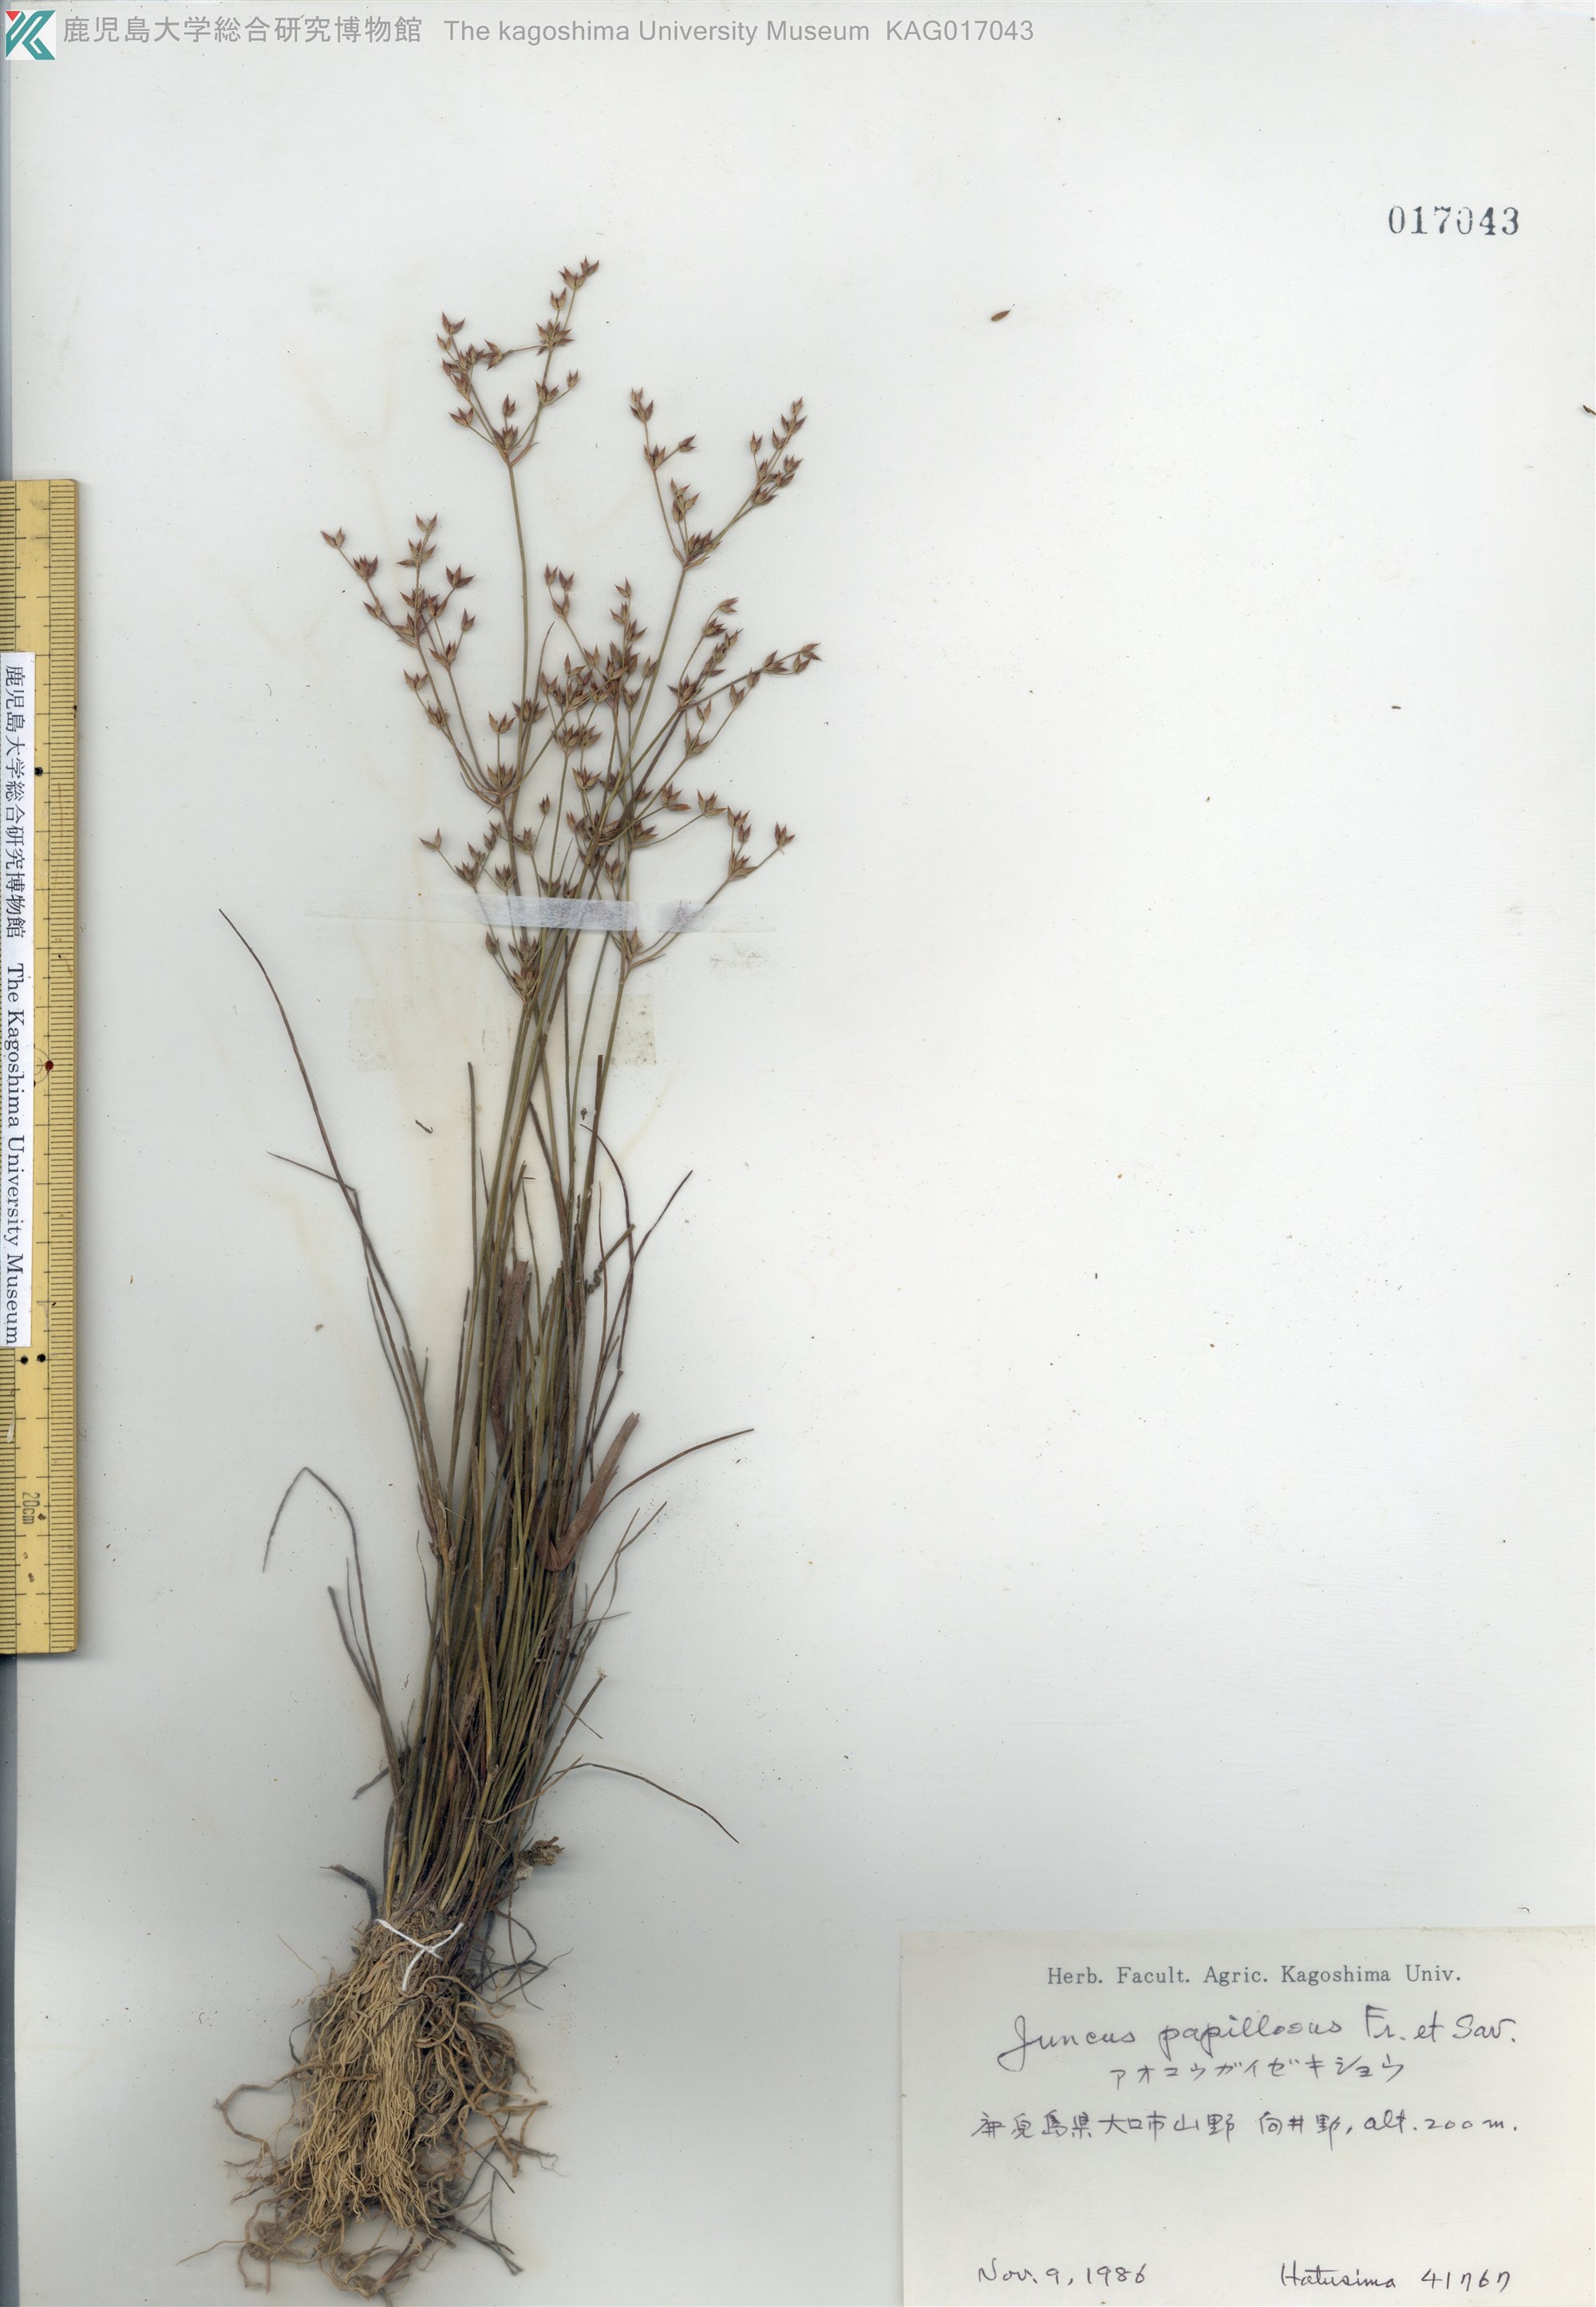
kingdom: Plantae
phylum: Tracheophyta
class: Liliopsida
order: Poales
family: Juncaceae
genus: Juncus
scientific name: Juncus papillosus
